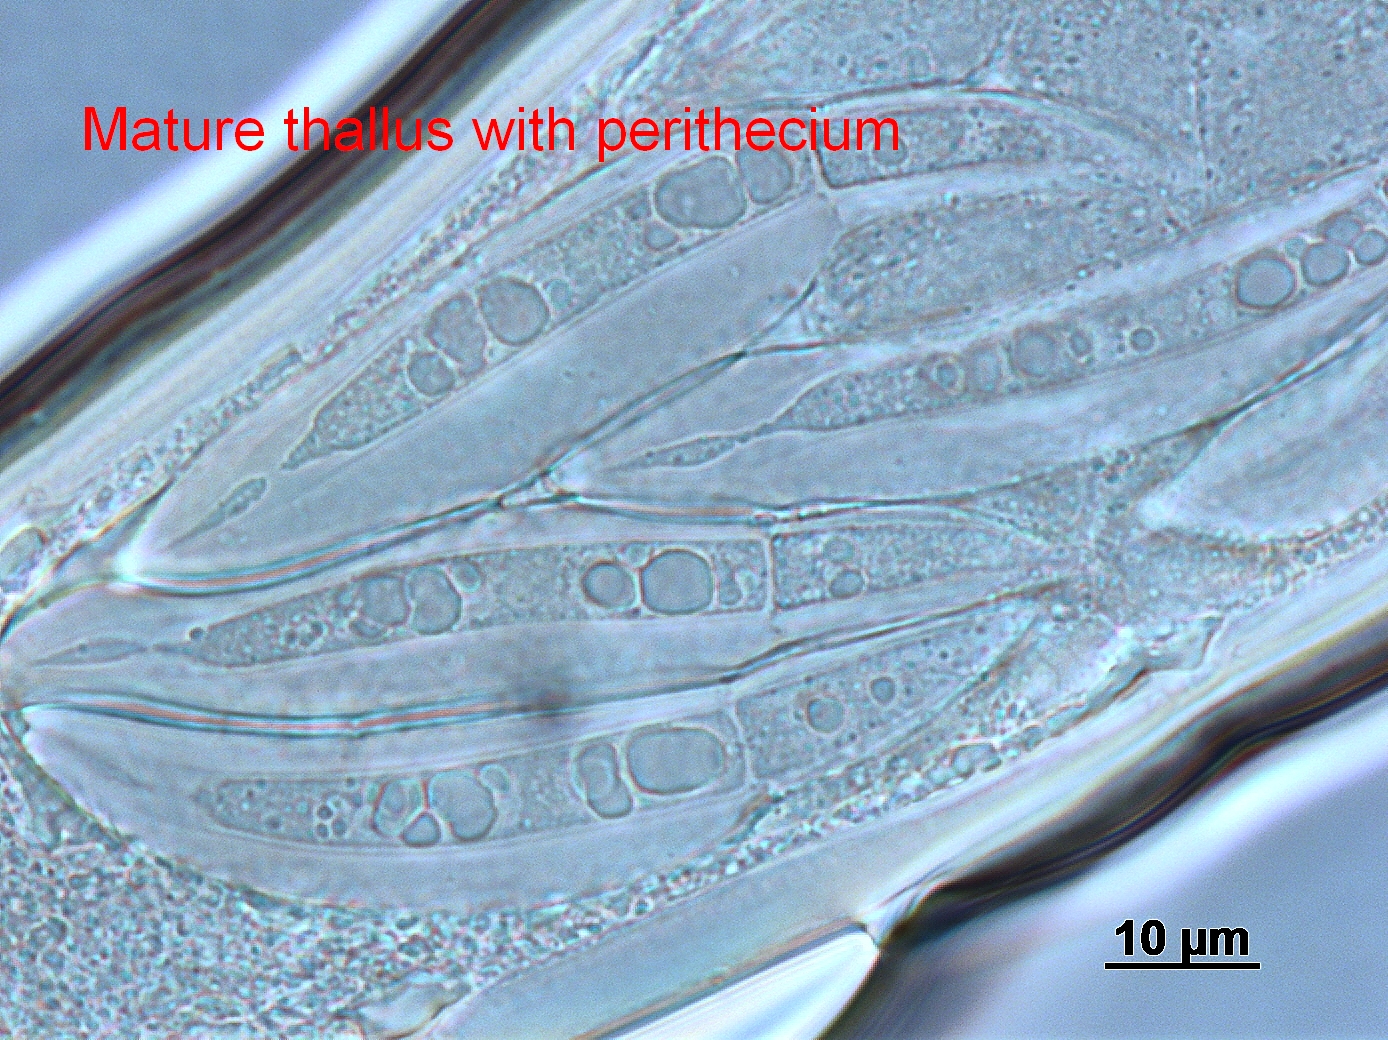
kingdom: Fungi
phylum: Ascomycota
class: Laboulbeniomycetes
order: Laboulbeniales
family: Laboulbeniaceae
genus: Hesperomyces
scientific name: Hesperomyces virescens
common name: Green beetle hanger
